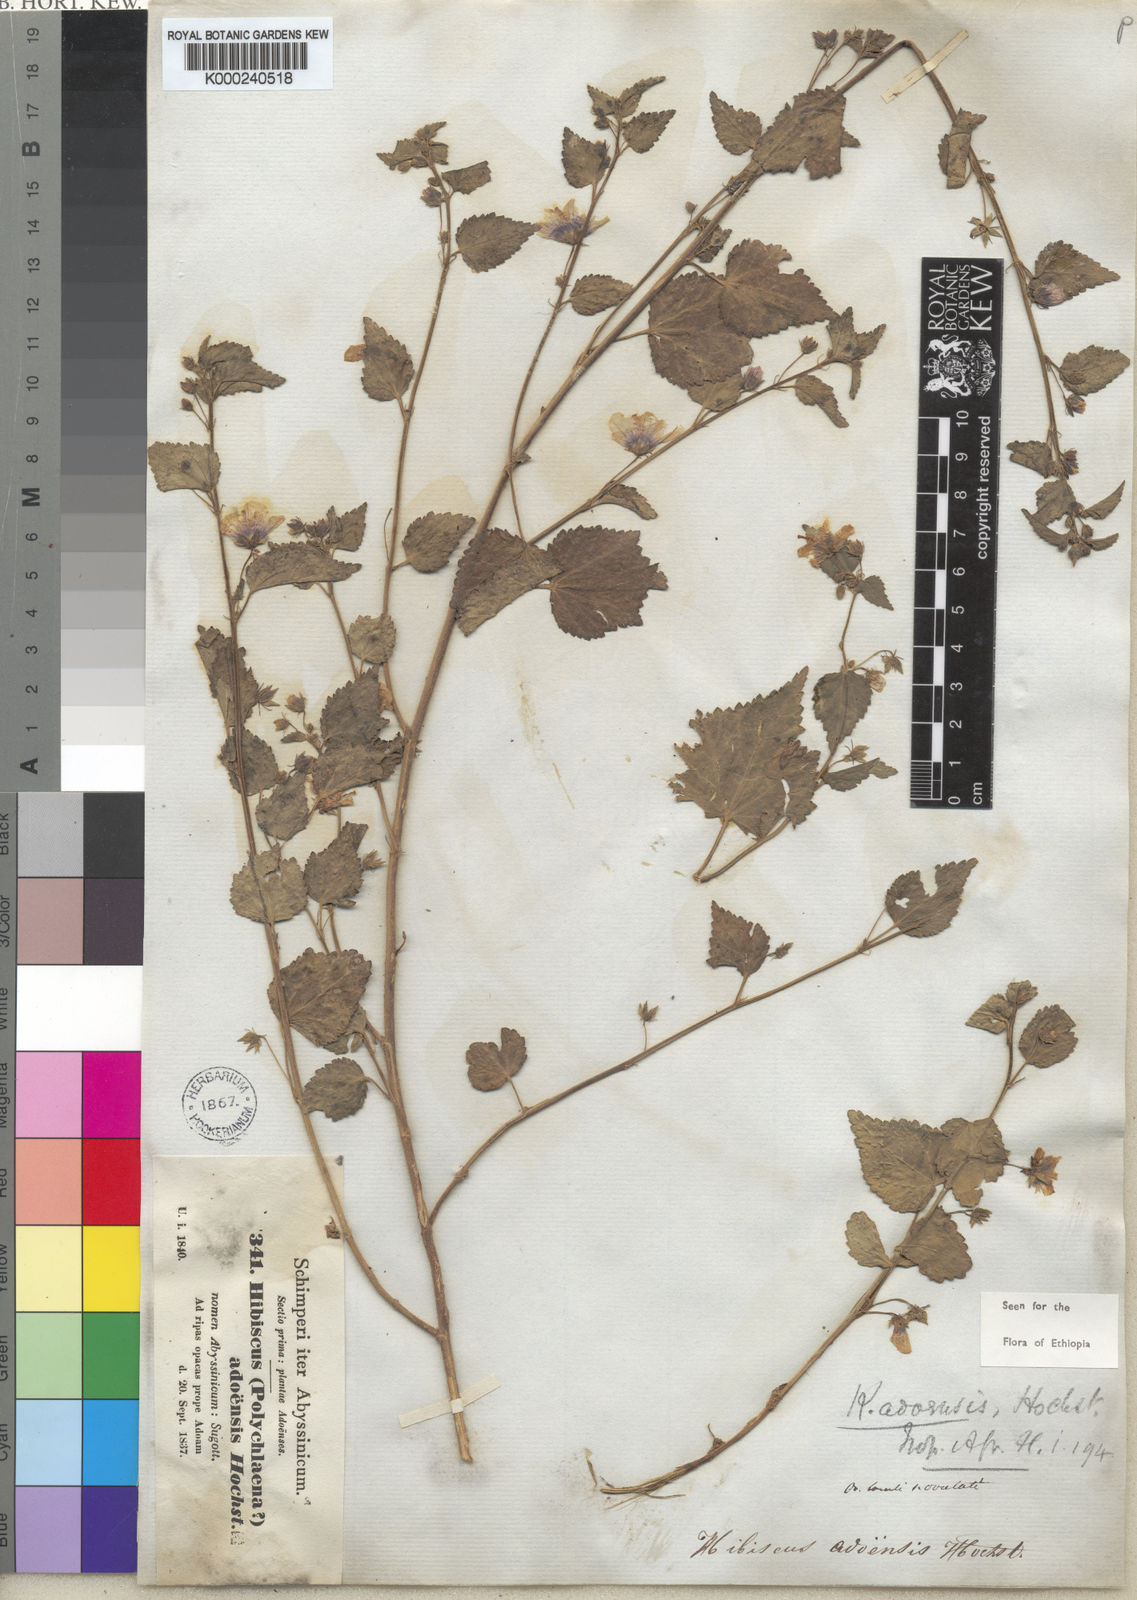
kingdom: Plantae
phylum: Tracheophyta
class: Magnoliopsida
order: Malvales
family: Malvaceae
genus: Kosteletzkya
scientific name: Kosteletzkya adoensis
